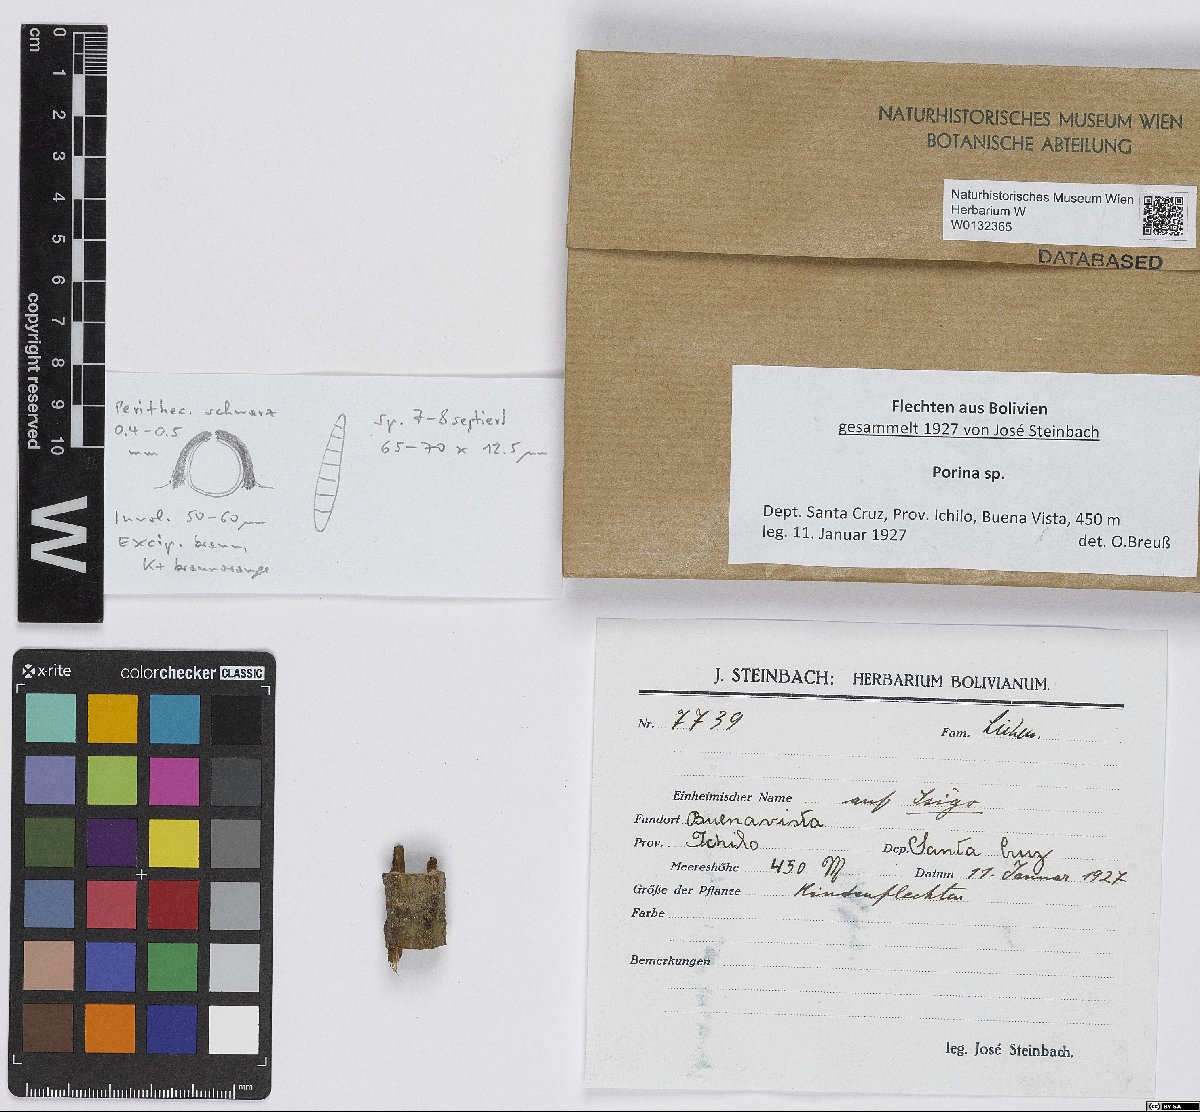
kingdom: Fungi
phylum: Ascomycota
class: Lecanoromycetes
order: Ostropales
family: Porinaceae
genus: Porina
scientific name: Porina
